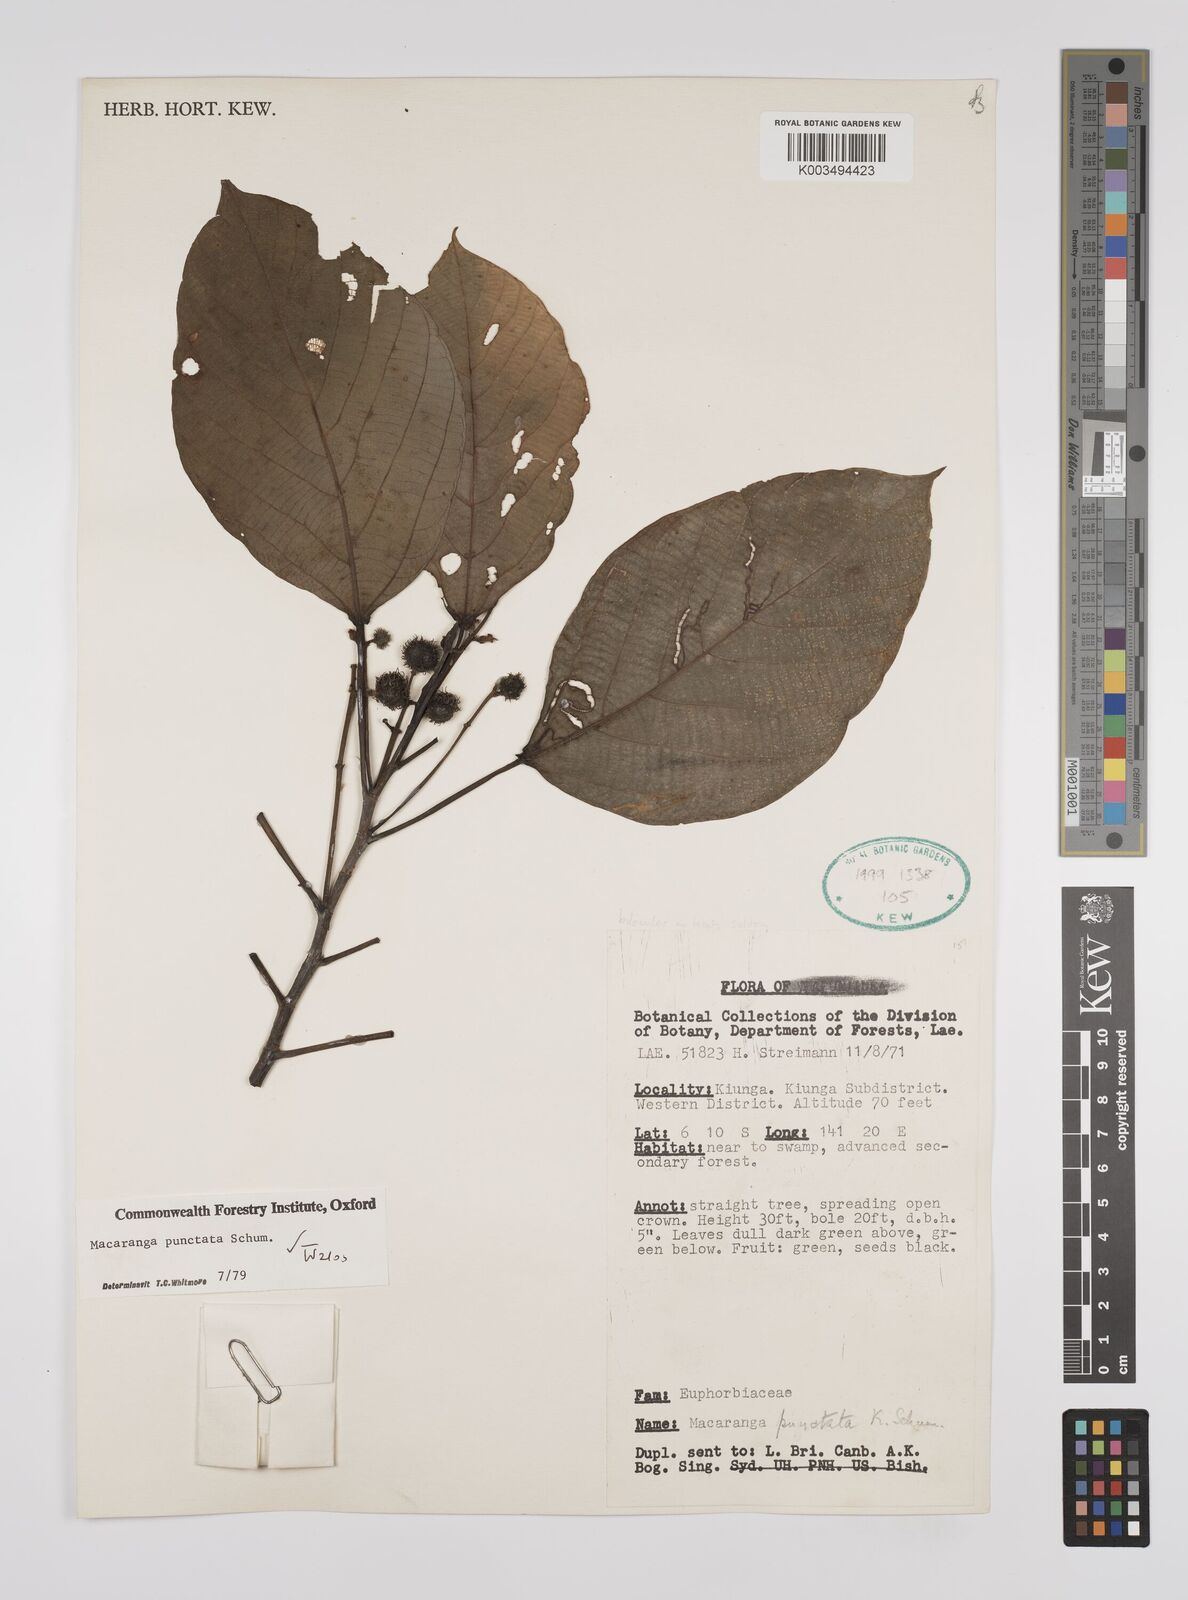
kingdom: Plantae
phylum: Tracheophyta
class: Magnoliopsida
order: Malpighiales
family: Euphorbiaceae
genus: Macaranga
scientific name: Macaranga punctata
